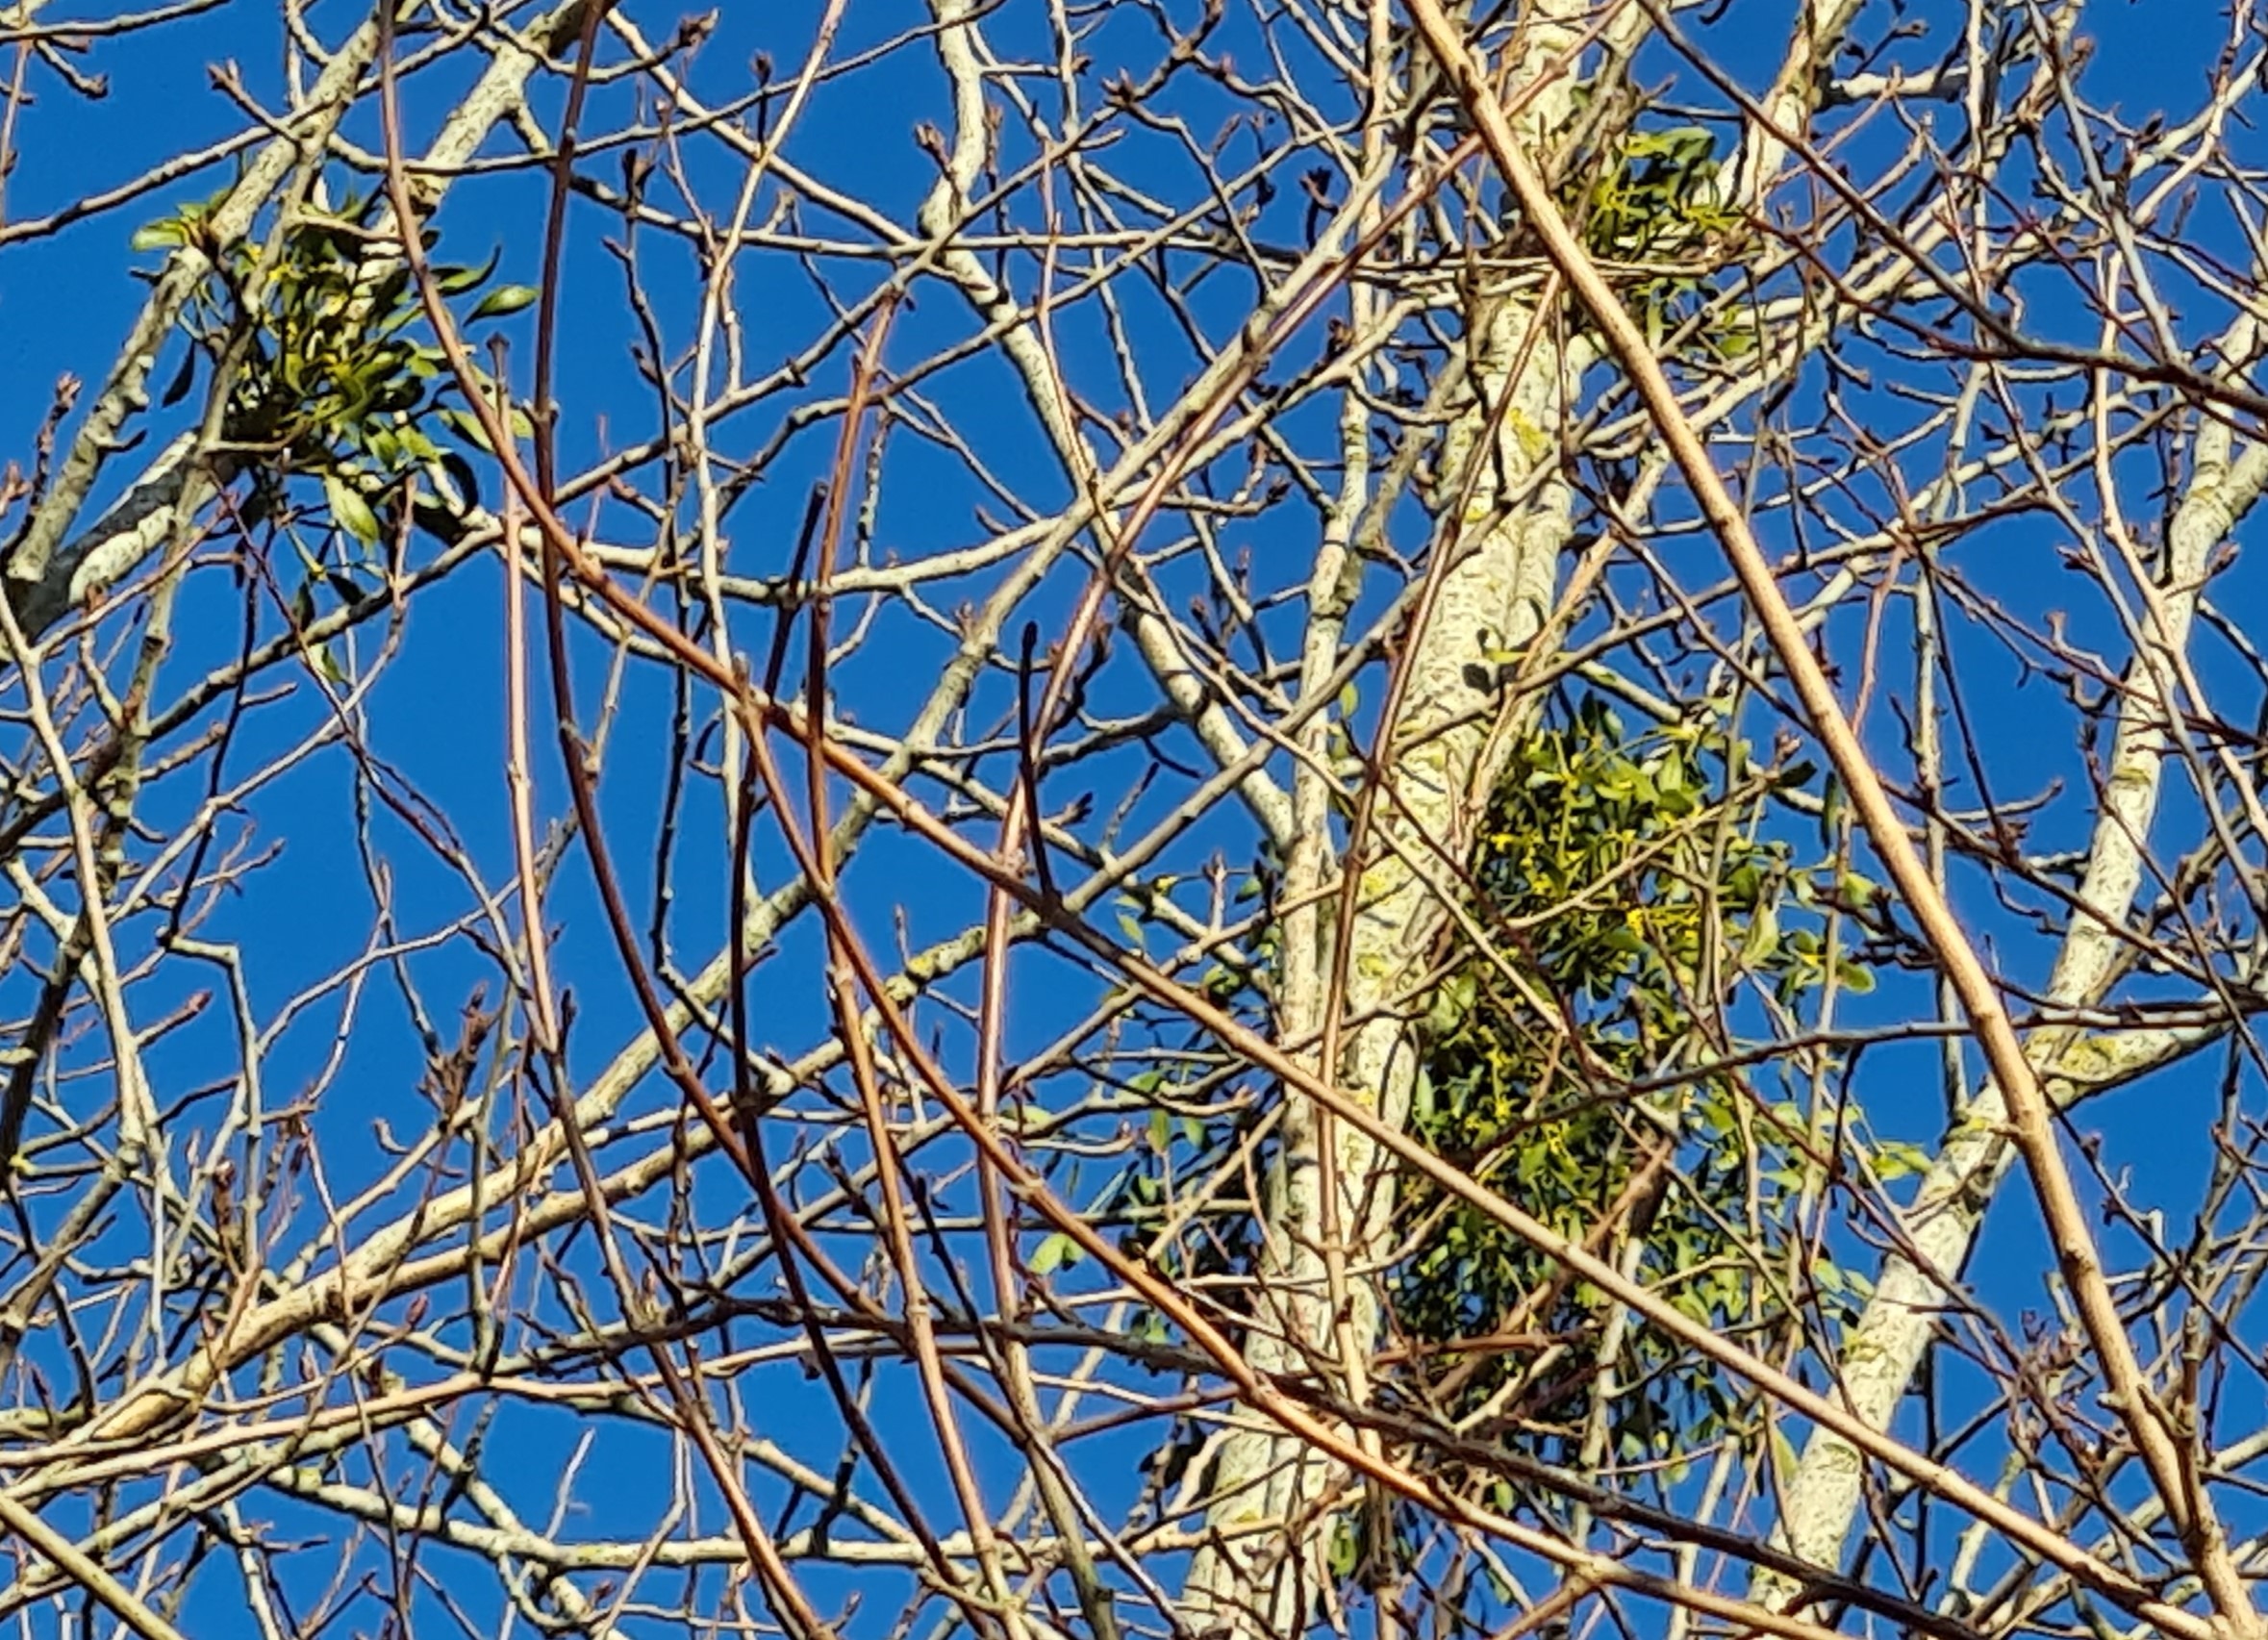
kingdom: Plantae
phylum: Tracheophyta
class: Magnoliopsida
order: Santalales
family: Viscaceae
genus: Viscum
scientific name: Viscum album
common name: Mistelten
